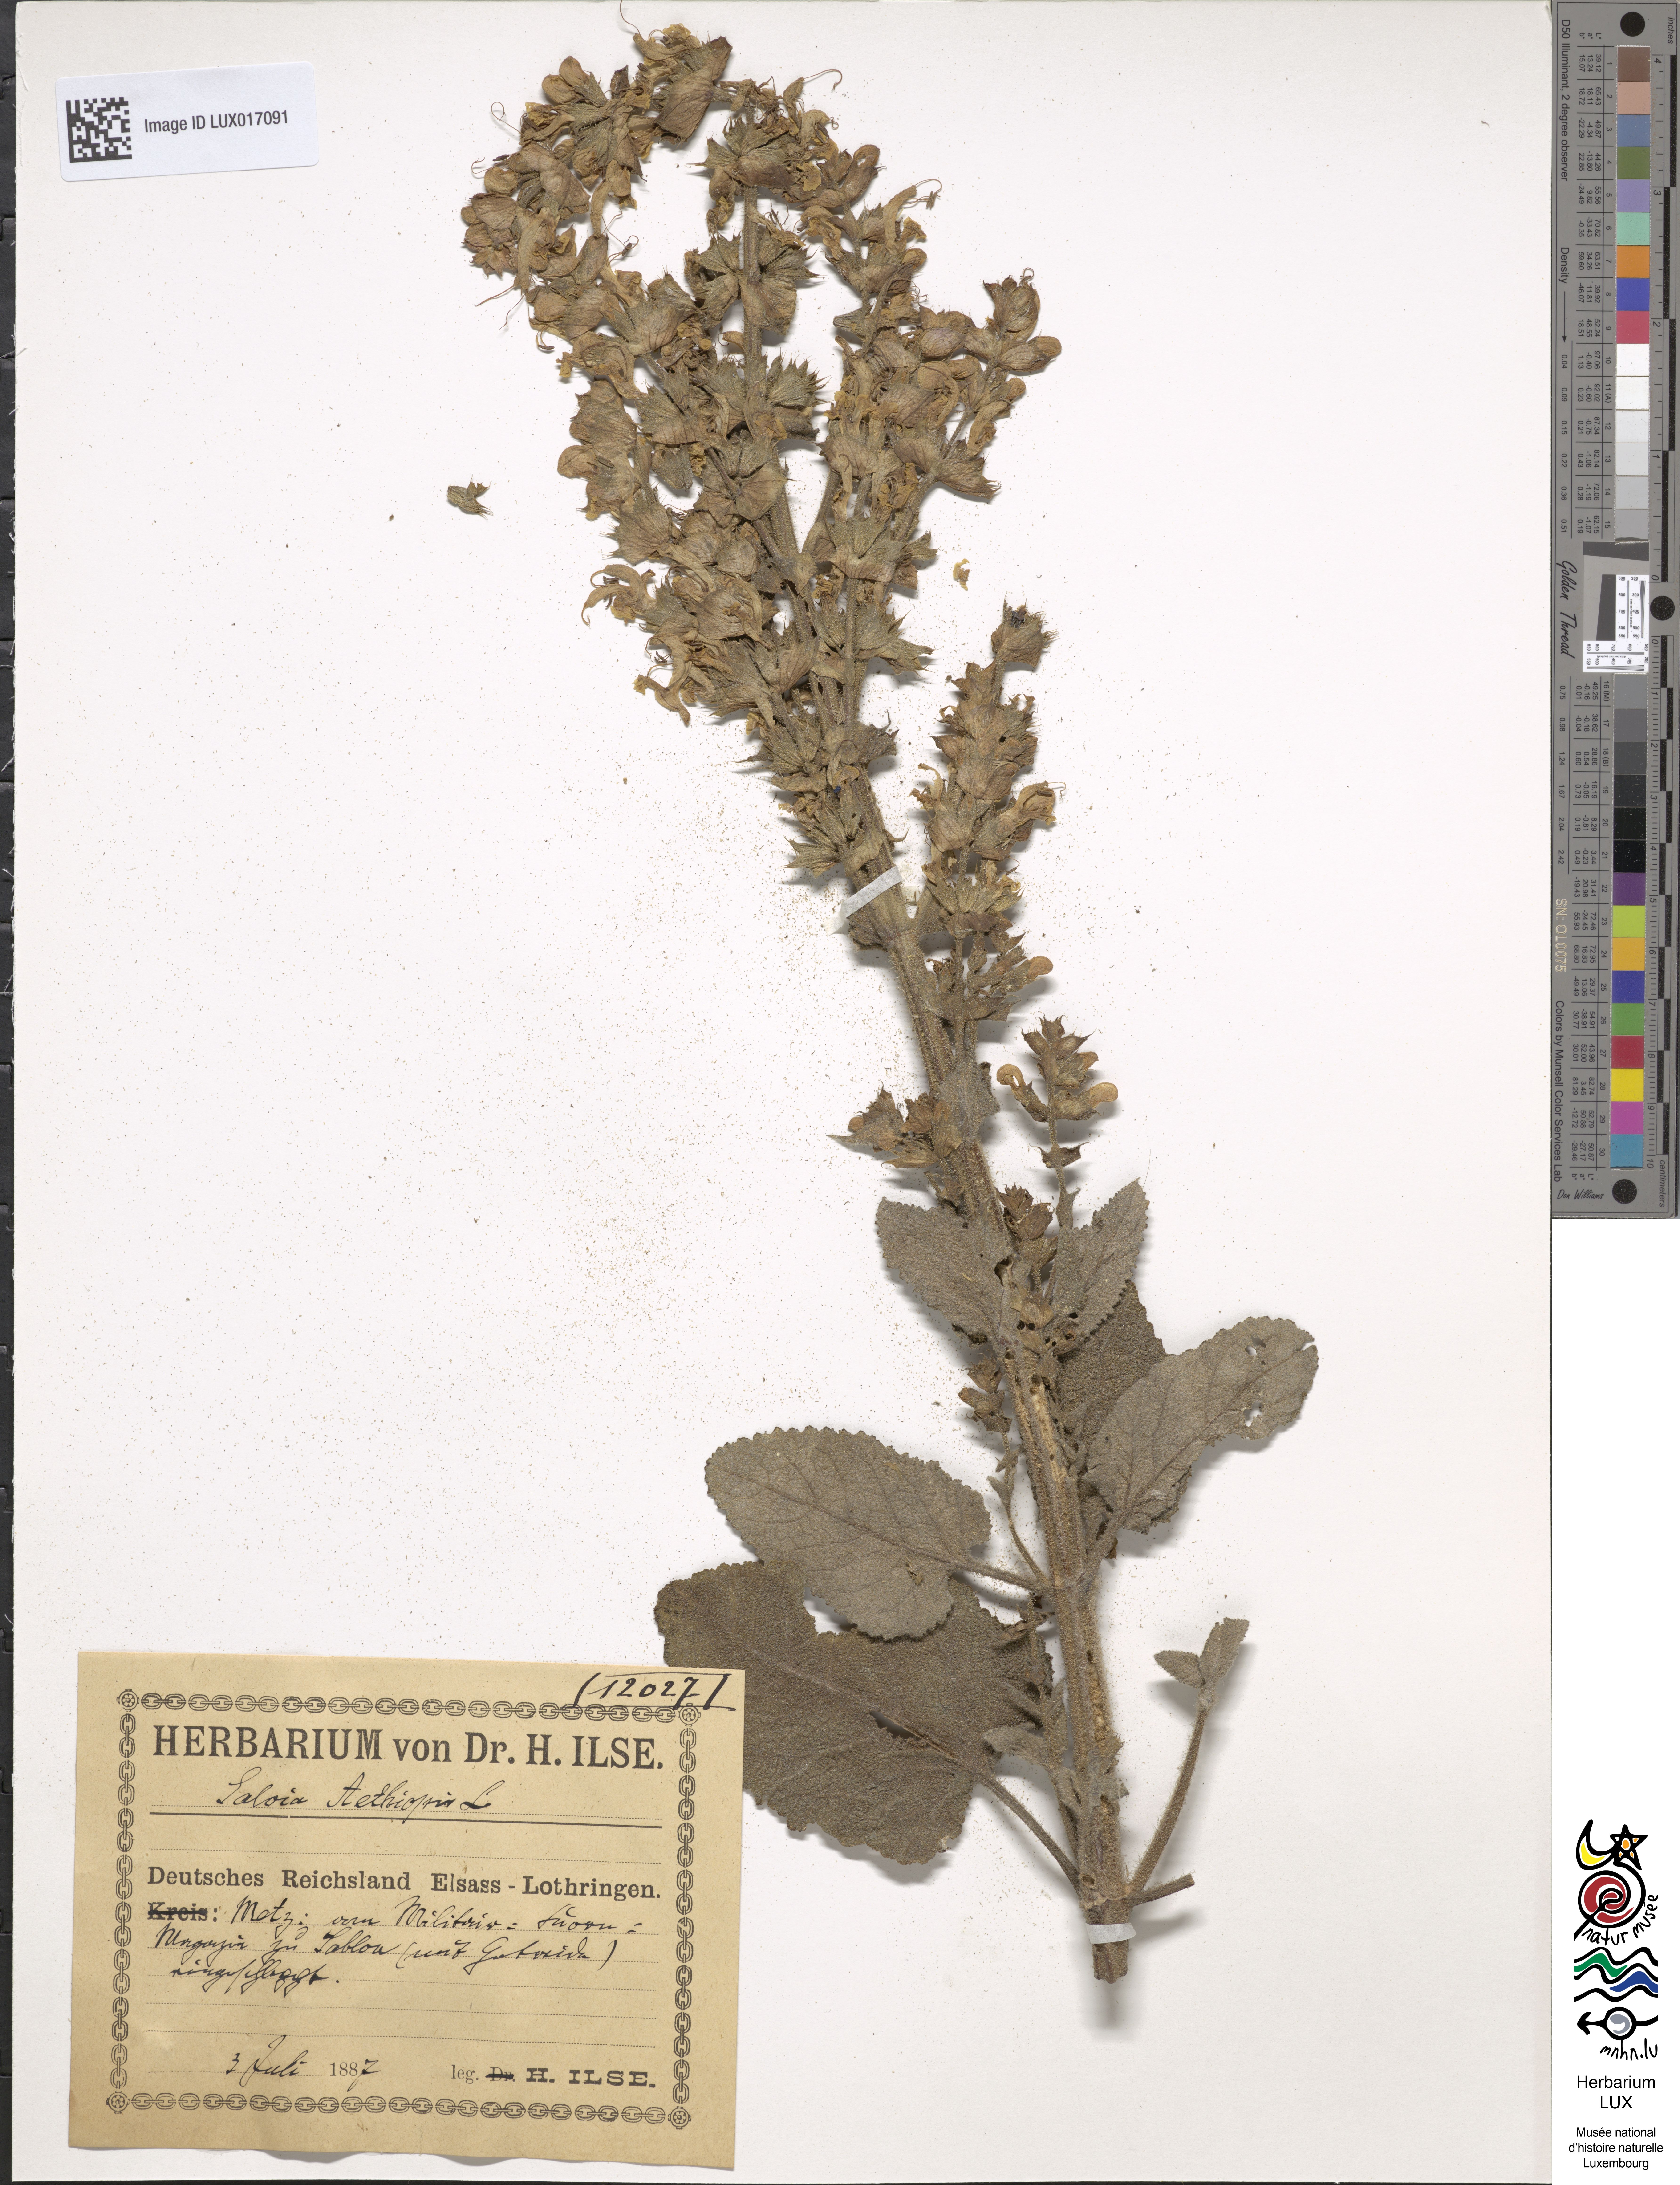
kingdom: Plantae
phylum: Tracheophyta
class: Magnoliopsida
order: Lamiales
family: Lamiaceae
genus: Salvia
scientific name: Salvia aethiopis
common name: Mediterranean sage
